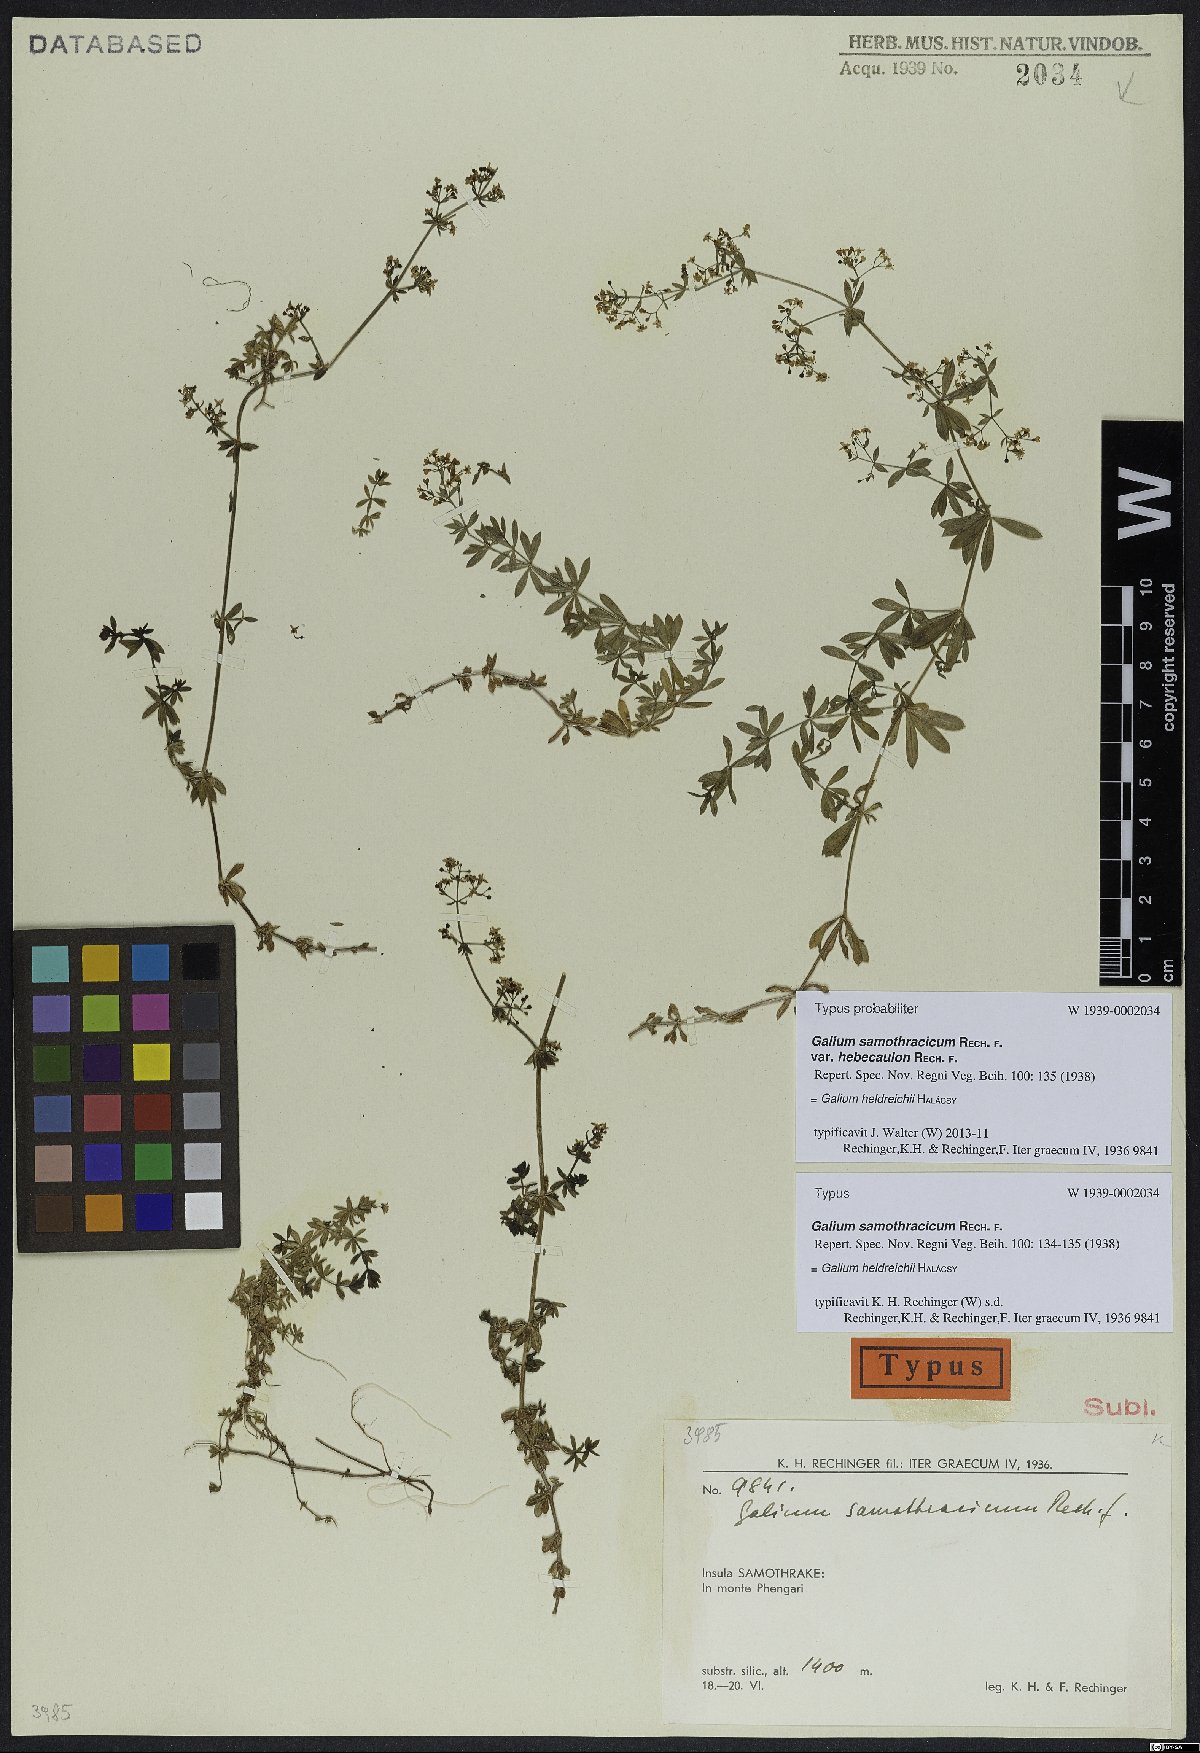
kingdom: Plantae
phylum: Tracheophyta
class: Magnoliopsida
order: Gentianales
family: Rubiaceae
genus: Galium
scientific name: Galium heldreichii
